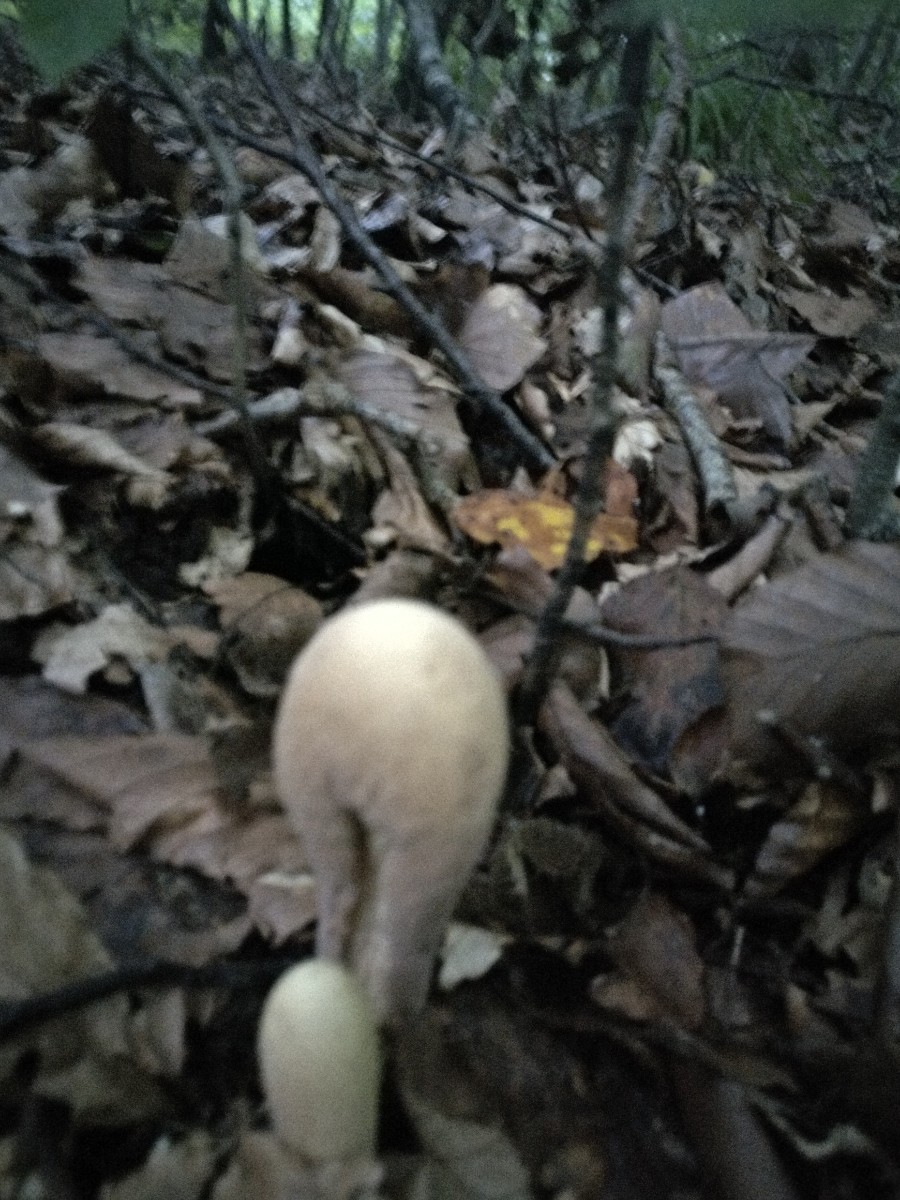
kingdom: Fungi
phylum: Basidiomycota
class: Agaricomycetes
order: Gomphales
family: Clavariadelphaceae
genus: Clavariadelphus
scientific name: Clavariadelphus pistillaris
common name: herkules-kæmpekølle
